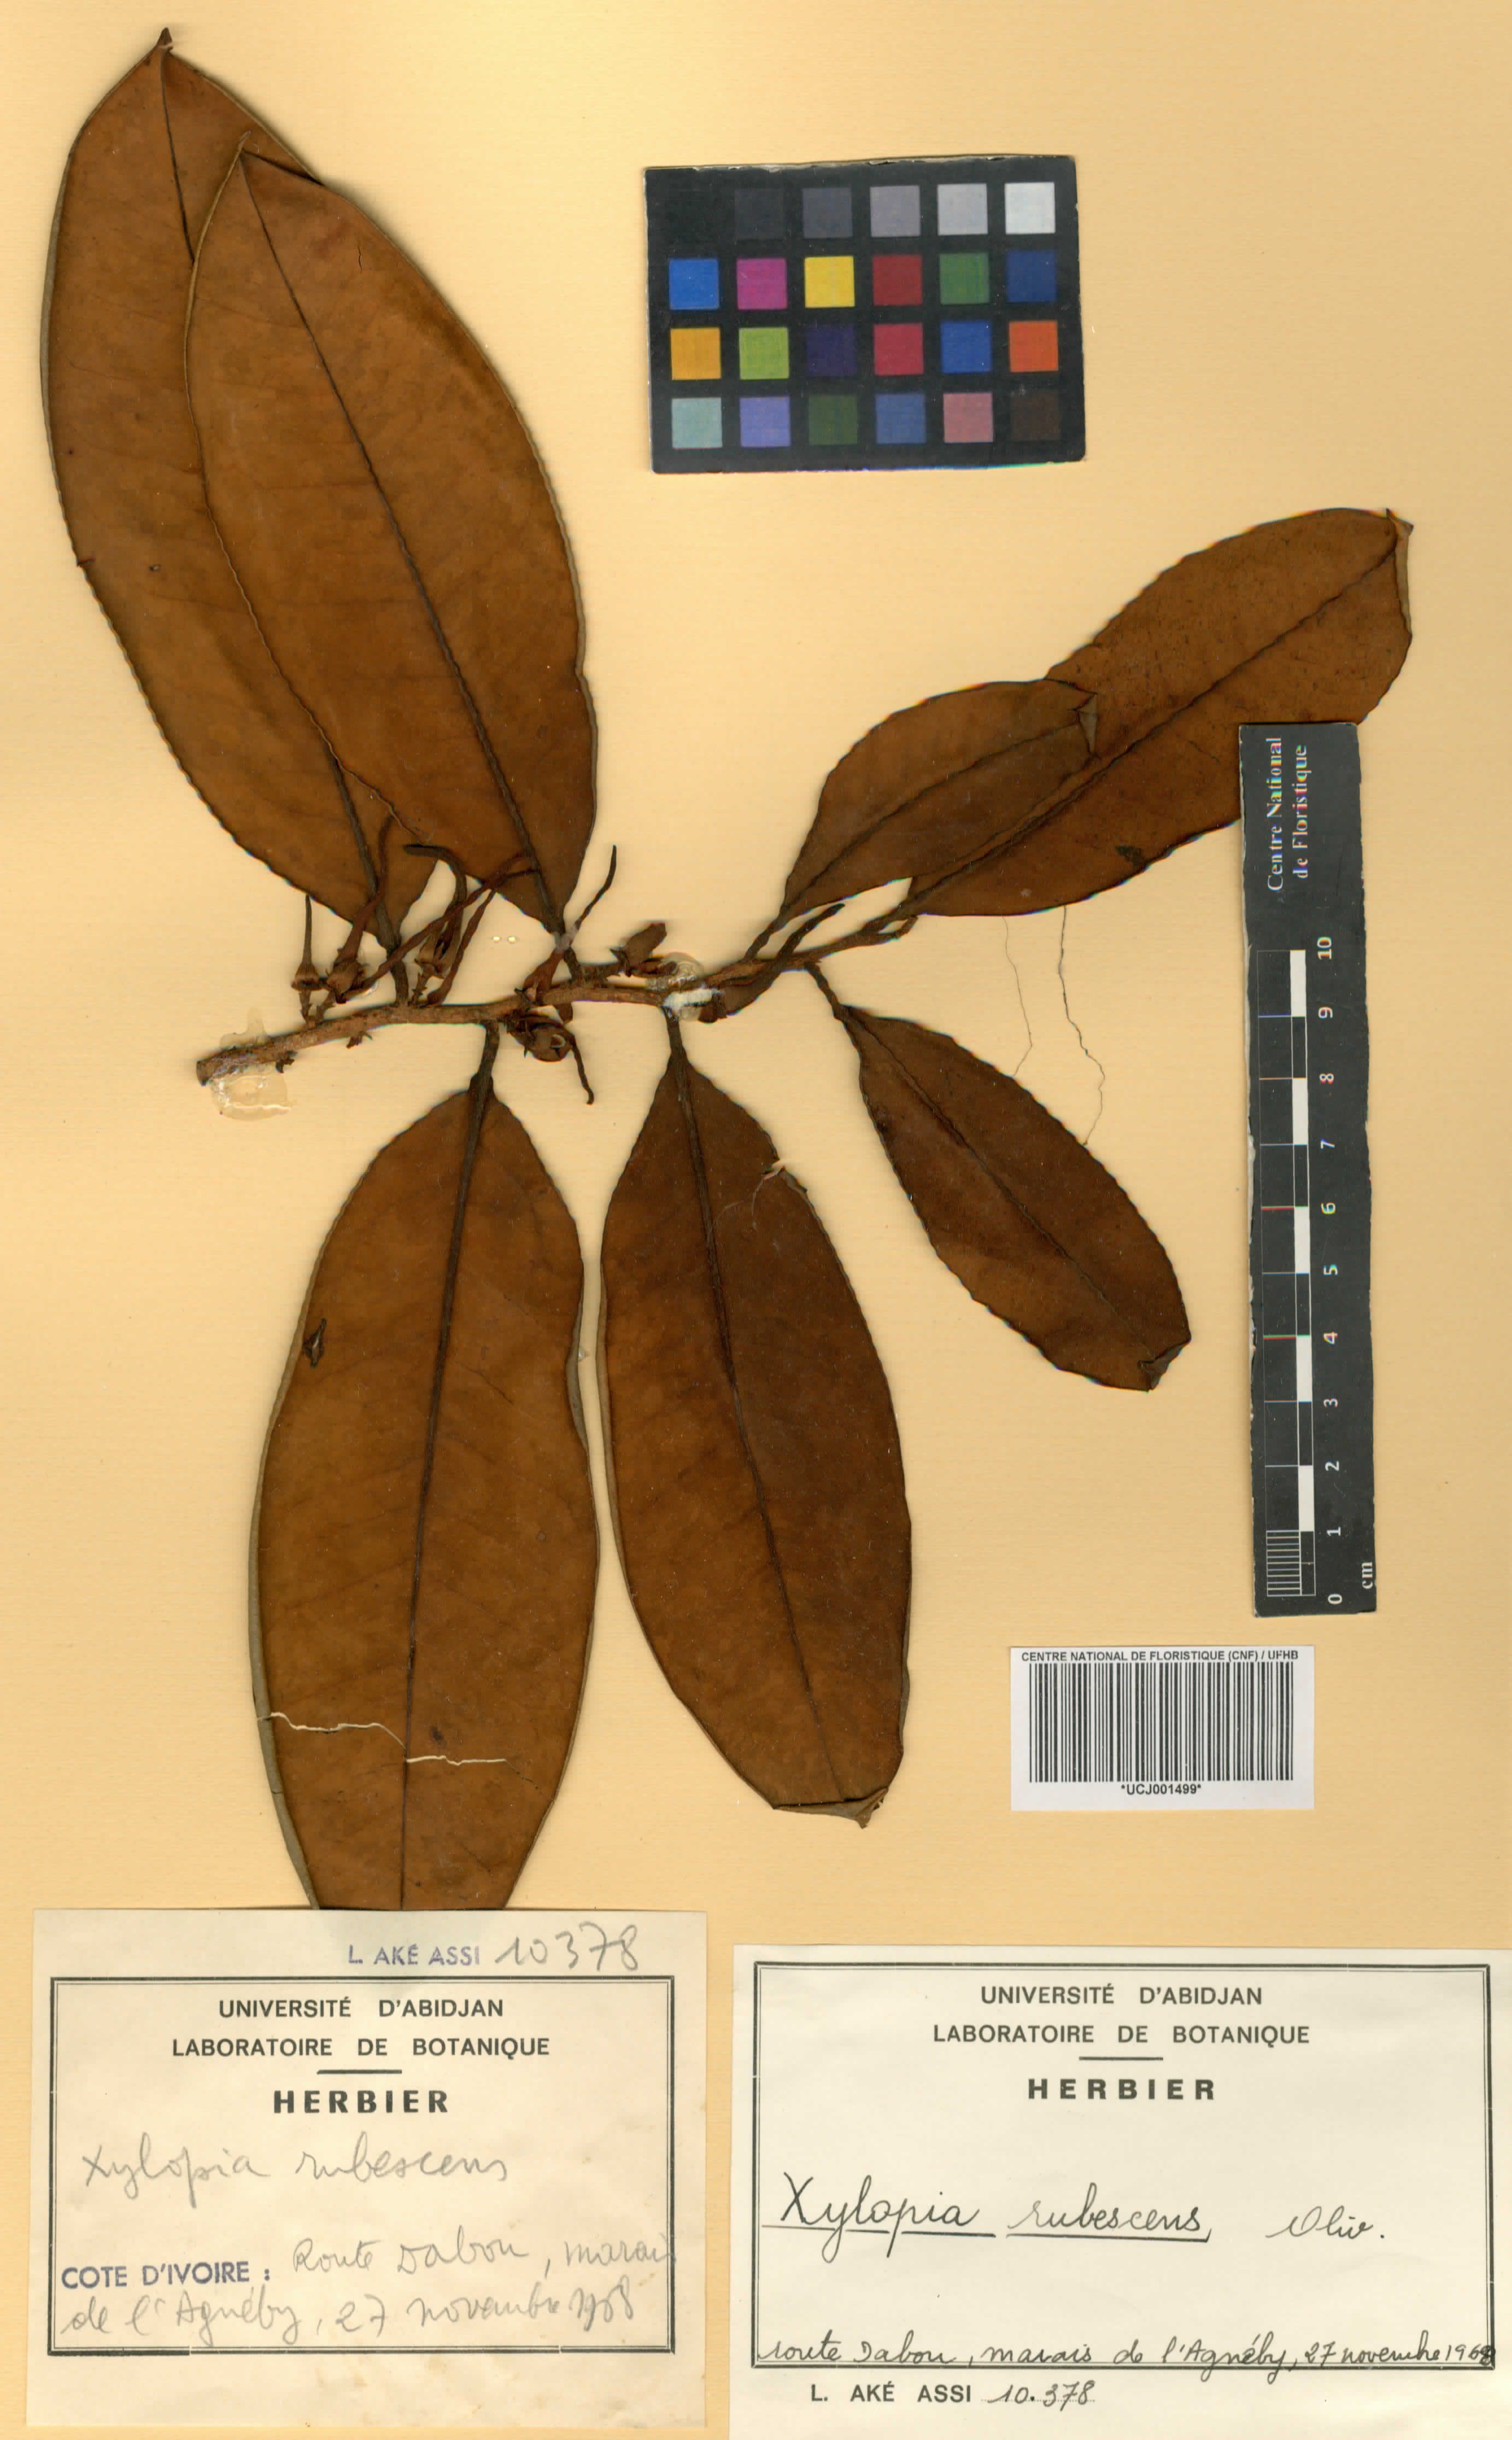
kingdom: Plantae
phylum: Tracheophyta
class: Magnoliopsida
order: Magnoliales
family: Annonaceae
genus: Xylopia
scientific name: Xylopia rubescens
